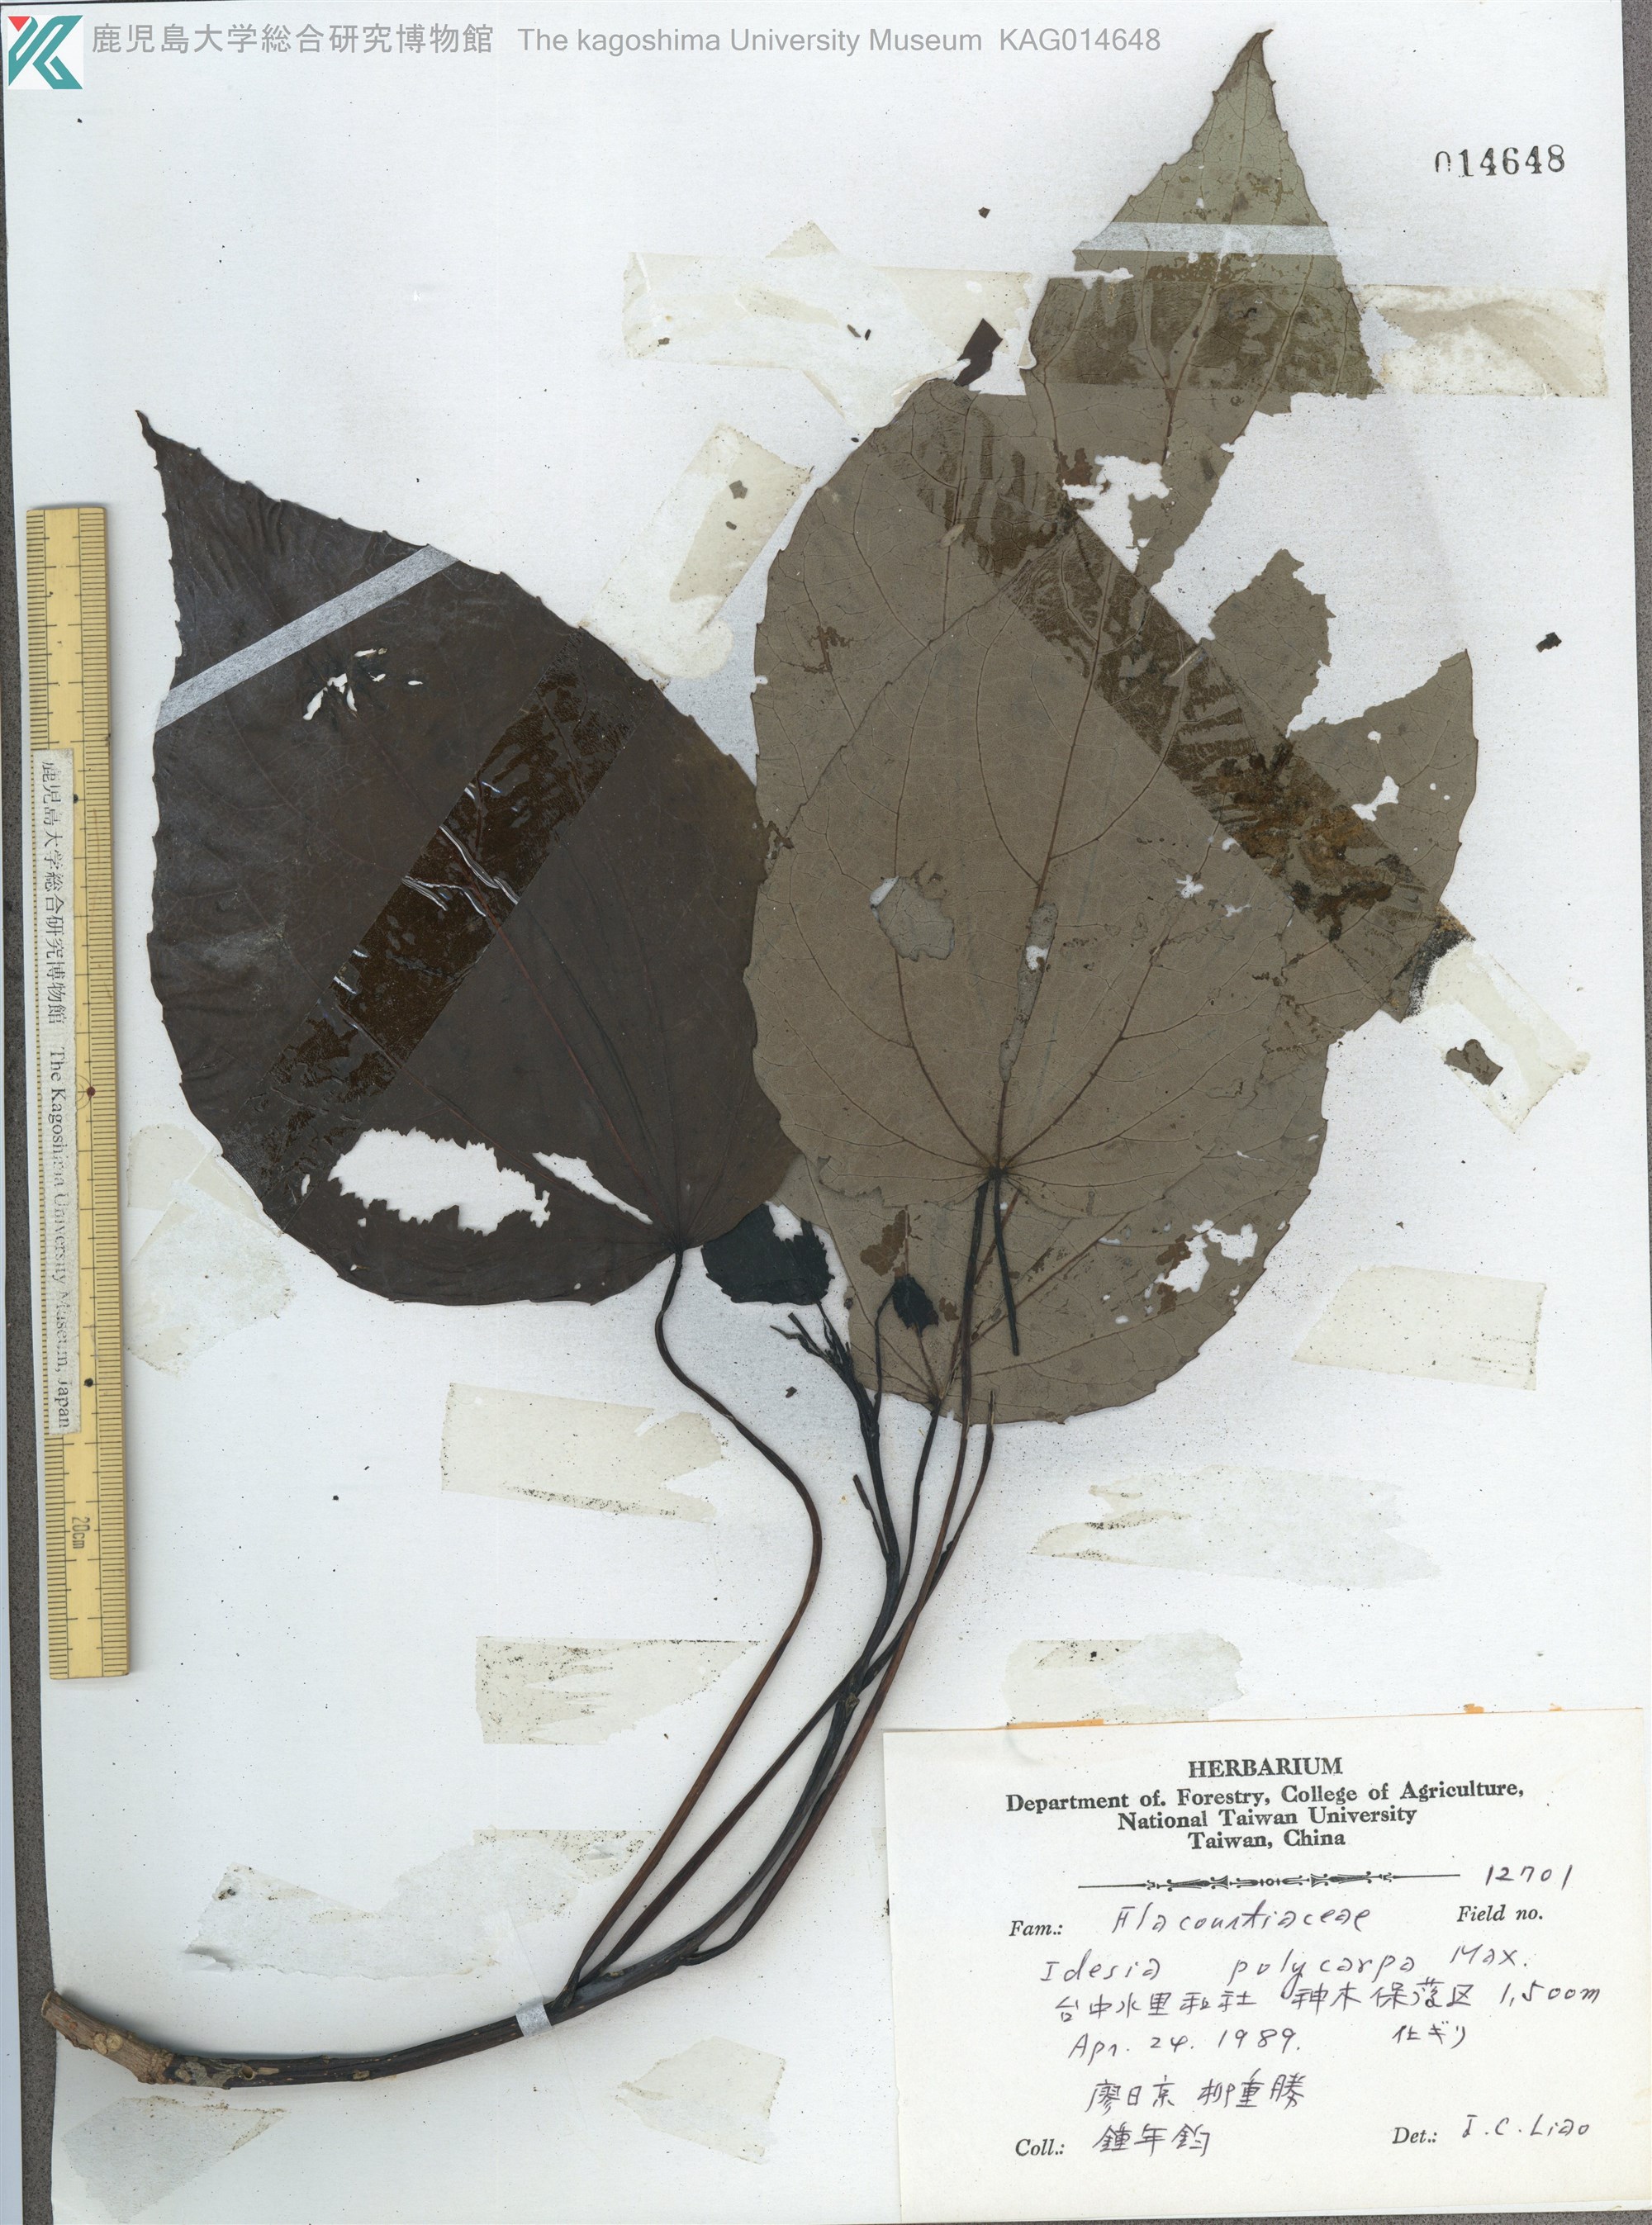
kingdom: Plantae
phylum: Tracheophyta
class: Magnoliopsida
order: Malpighiales
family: Salicaceae
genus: Idesia
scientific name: Idesia polycarpa
